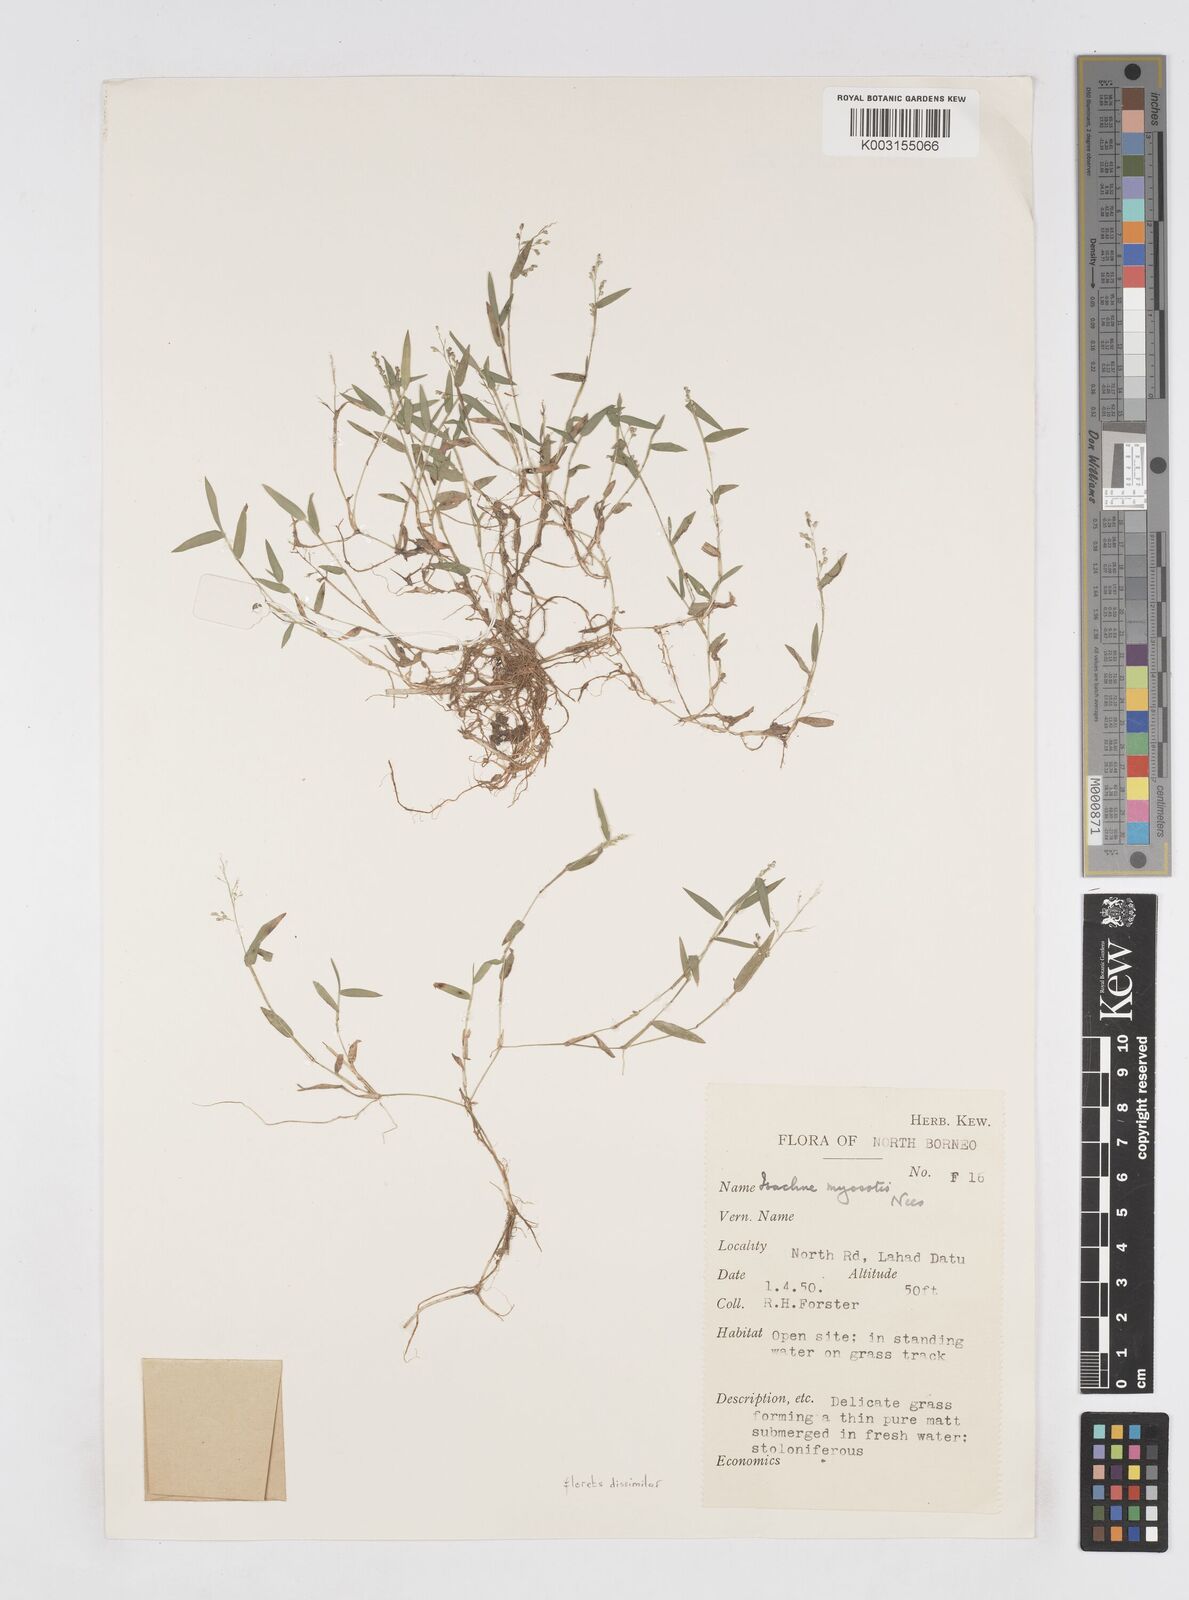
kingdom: Plantae
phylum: Tracheophyta
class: Liliopsida
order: Poales
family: Poaceae
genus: Isachne
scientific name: Isachne polygonoides
